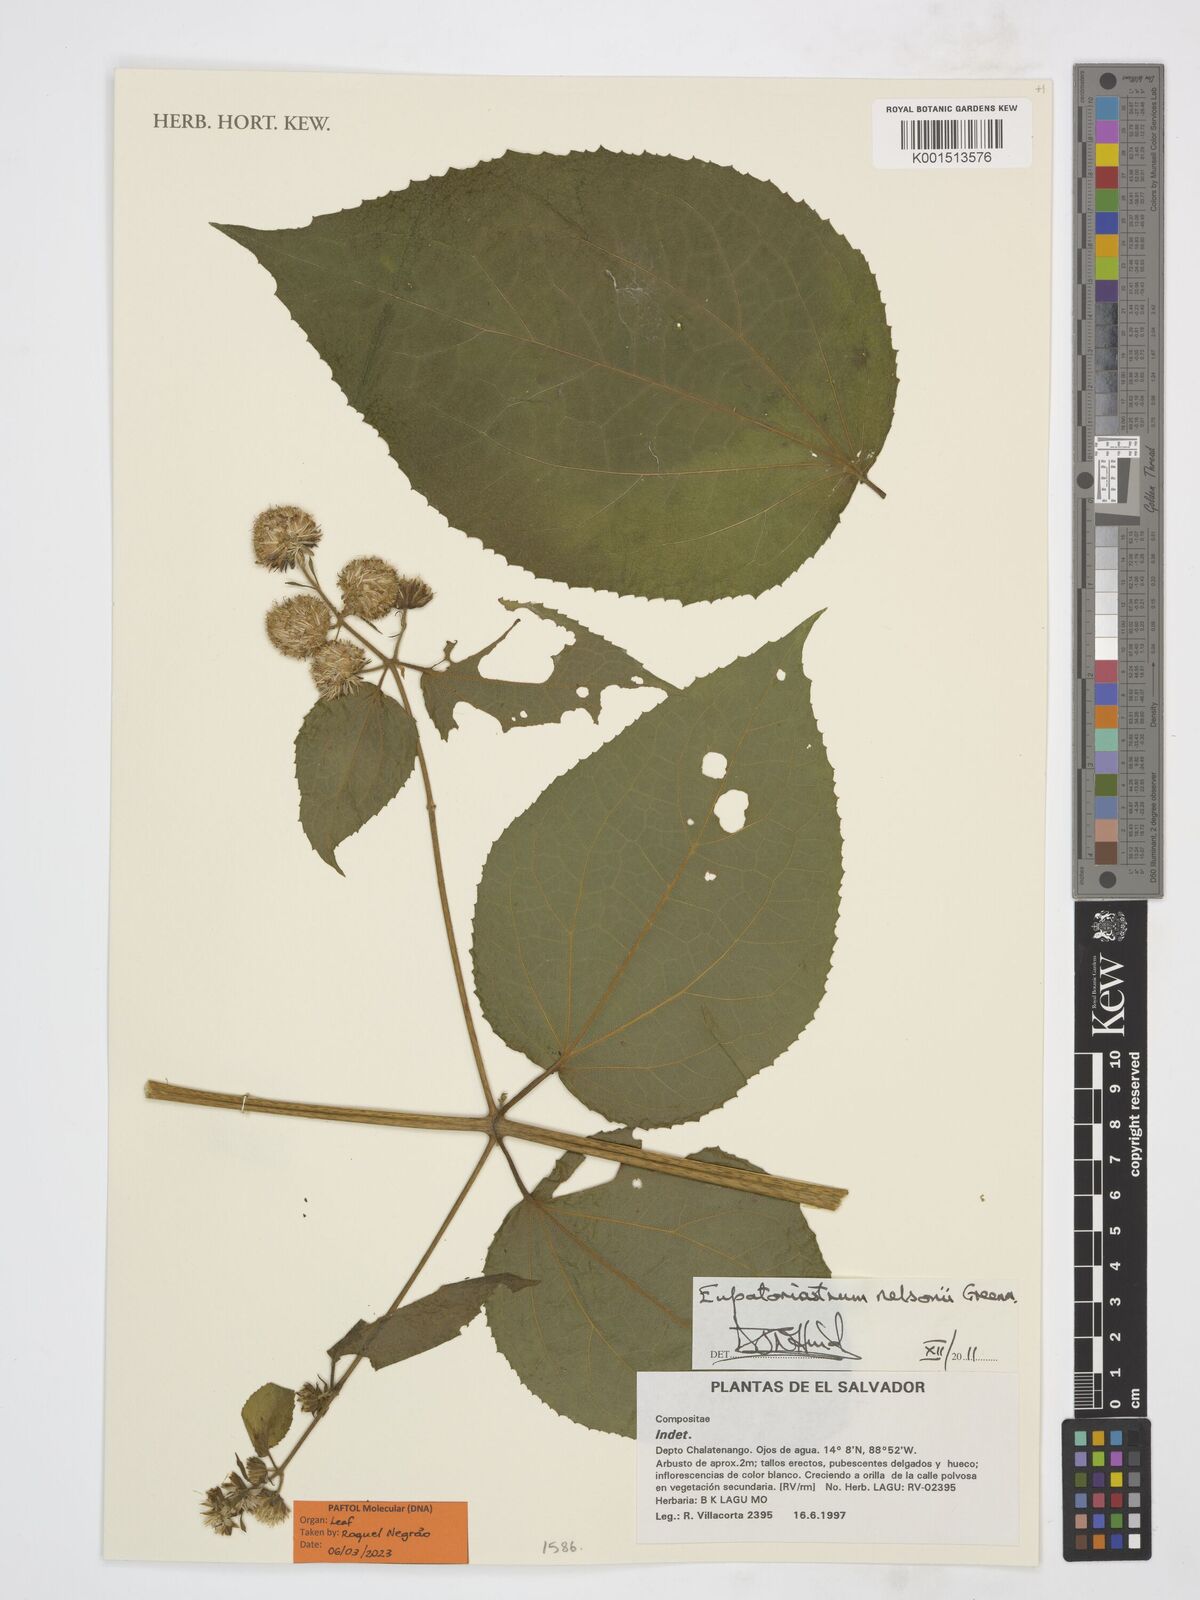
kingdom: Plantae
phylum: Tracheophyta
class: Magnoliopsida
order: Asterales
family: Asteraceae
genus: Eupatoriastrum
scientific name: Eupatoriastrum nelsonii
